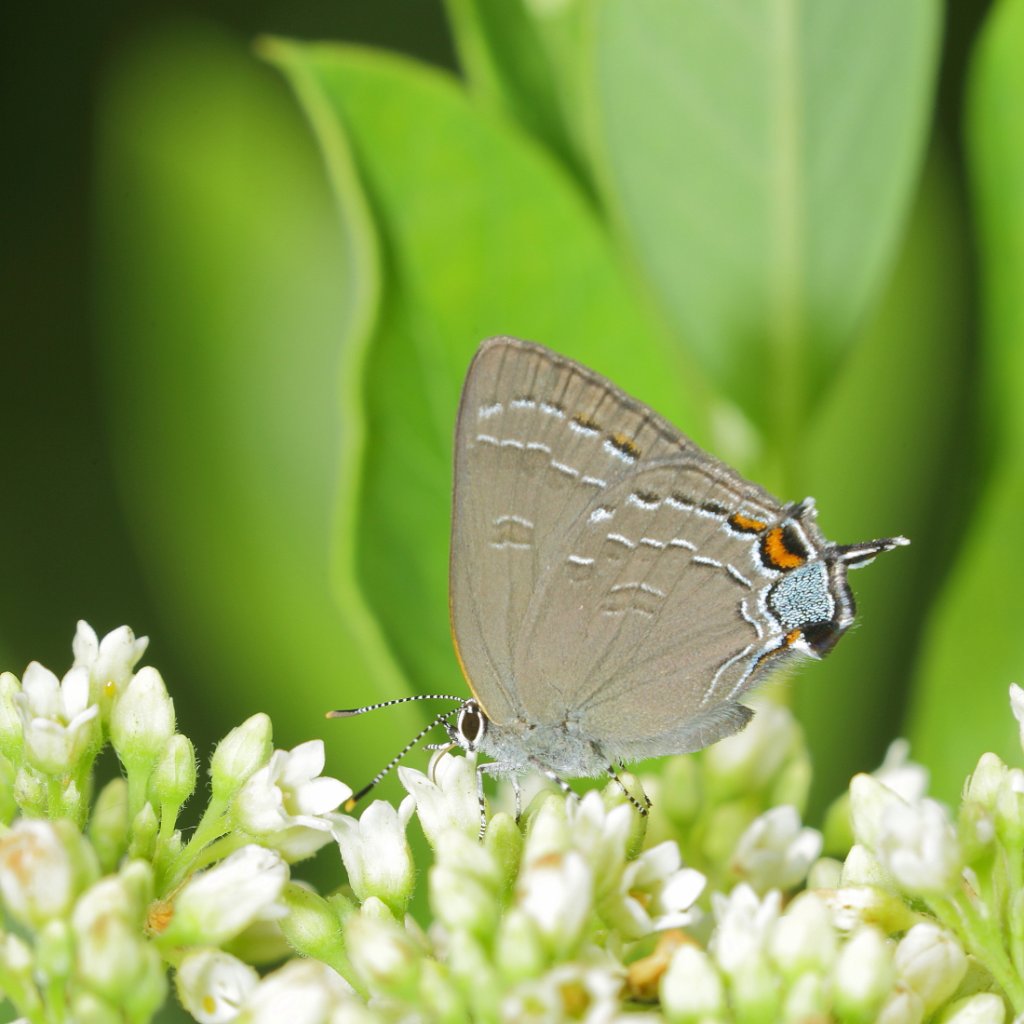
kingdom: Animalia
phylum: Arthropoda
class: Insecta
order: Lepidoptera
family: Lycaenidae
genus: Satyrium
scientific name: Satyrium calanus
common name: Banded Hairstreak
